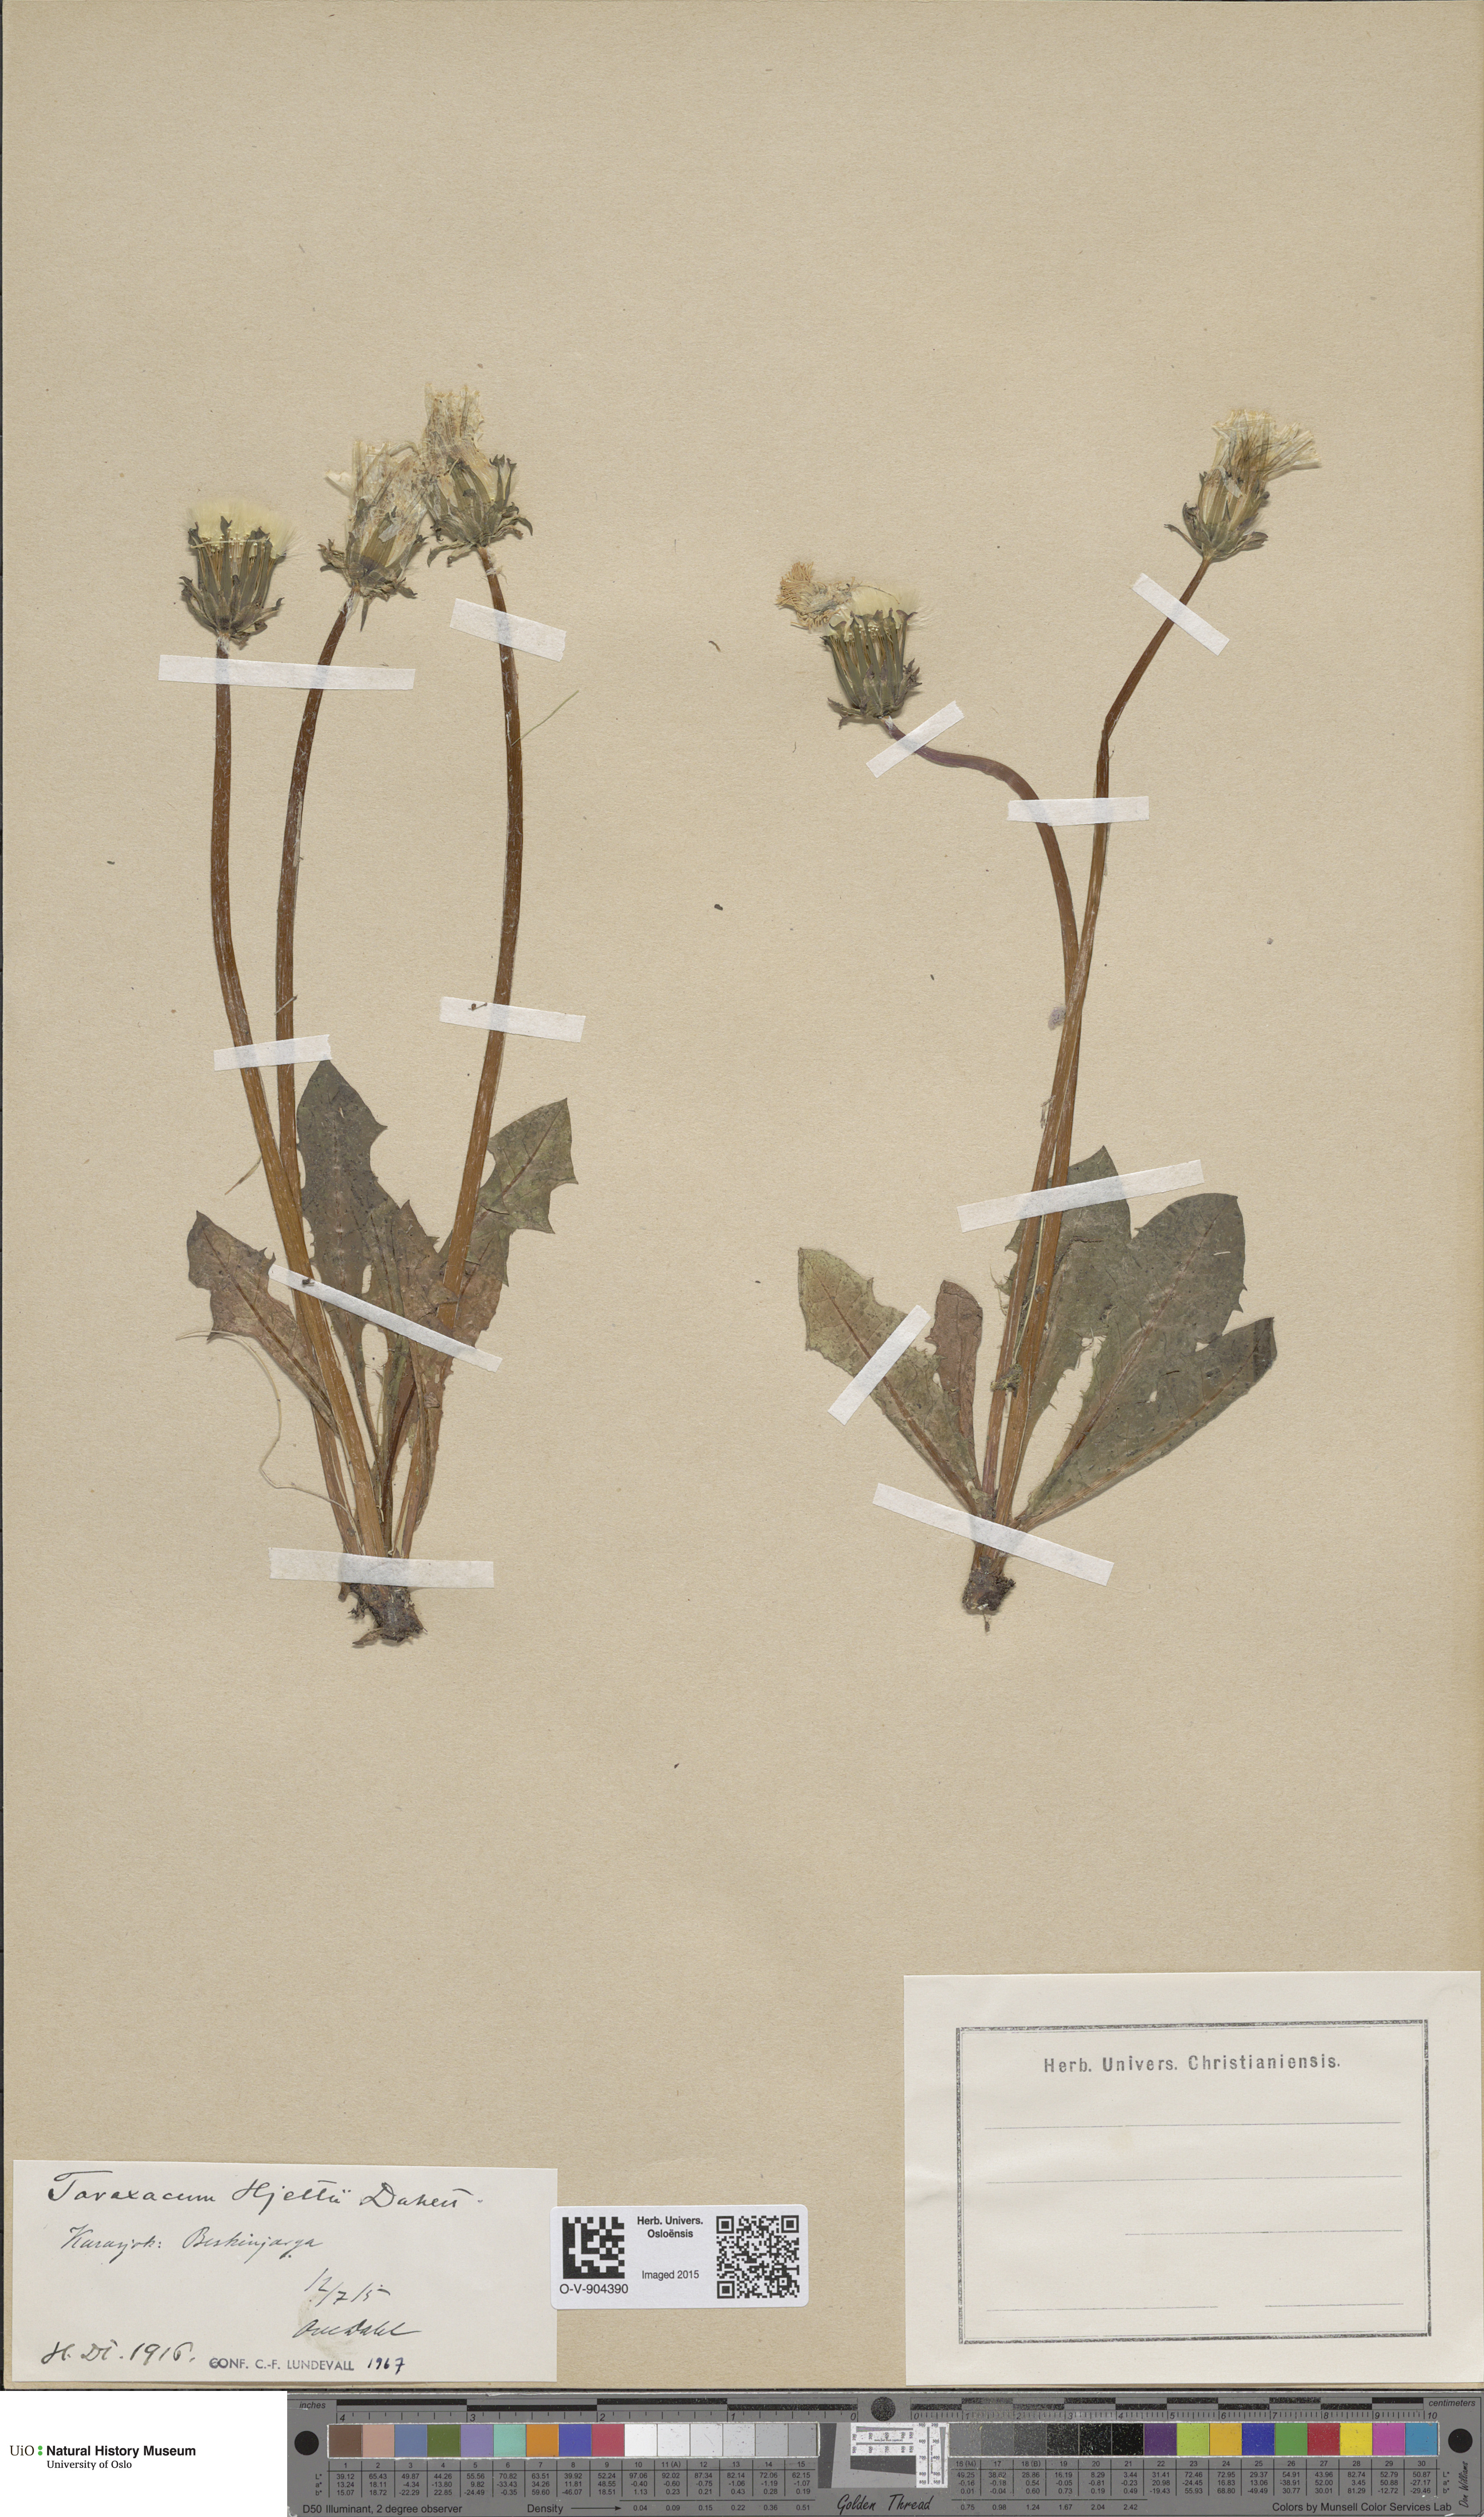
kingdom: Plantae
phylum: Tracheophyta
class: Magnoliopsida
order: Asterales
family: Asteraceae
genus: Taraxacum
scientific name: Taraxacum hjeltii
